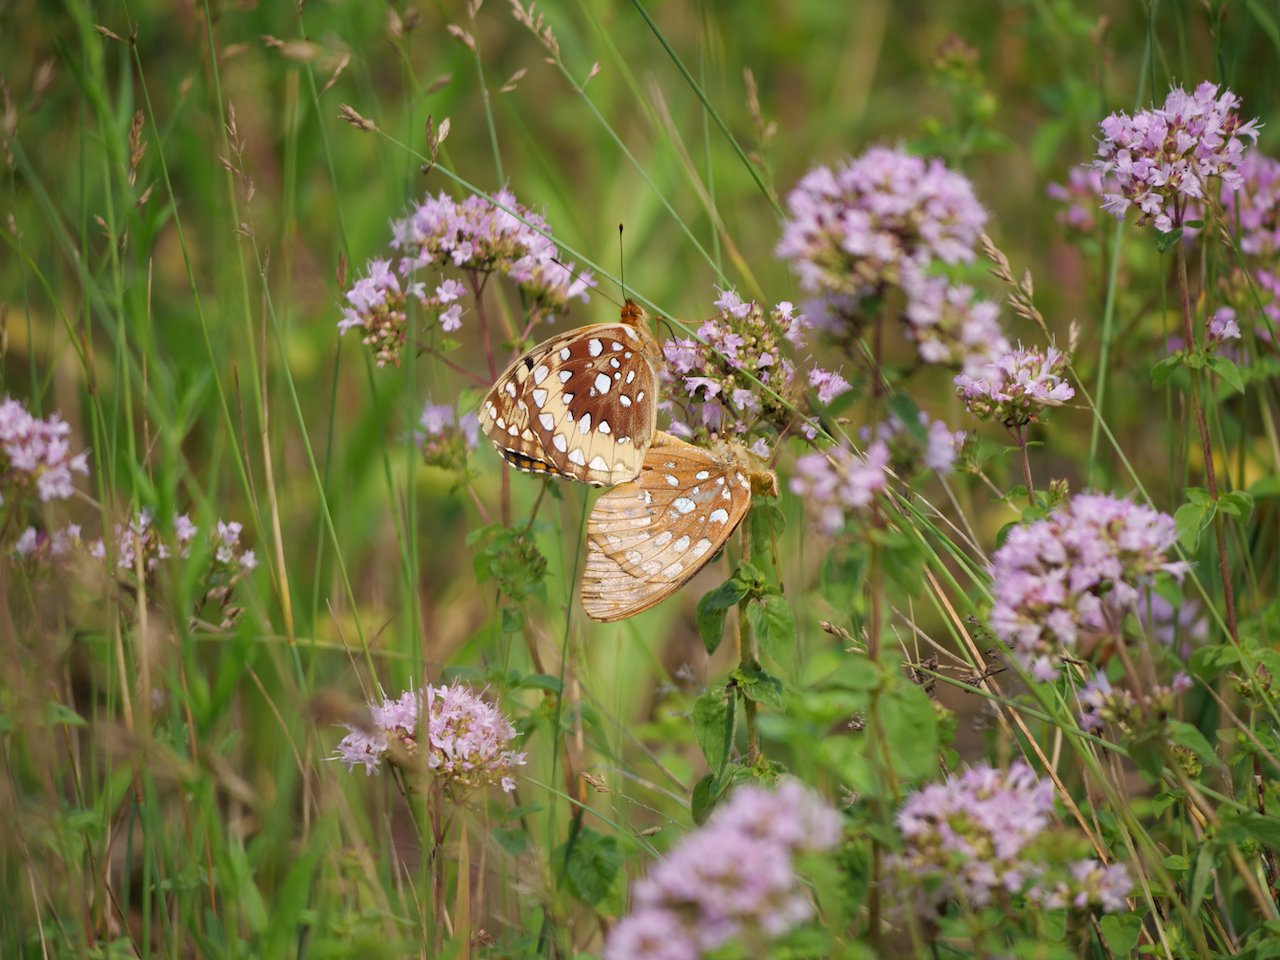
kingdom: Animalia
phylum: Arthropoda
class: Insecta
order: Lepidoptera
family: Nymphalidae
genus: Speyeria
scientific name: Speyeria cybele
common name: Great Spangled Fritillary
